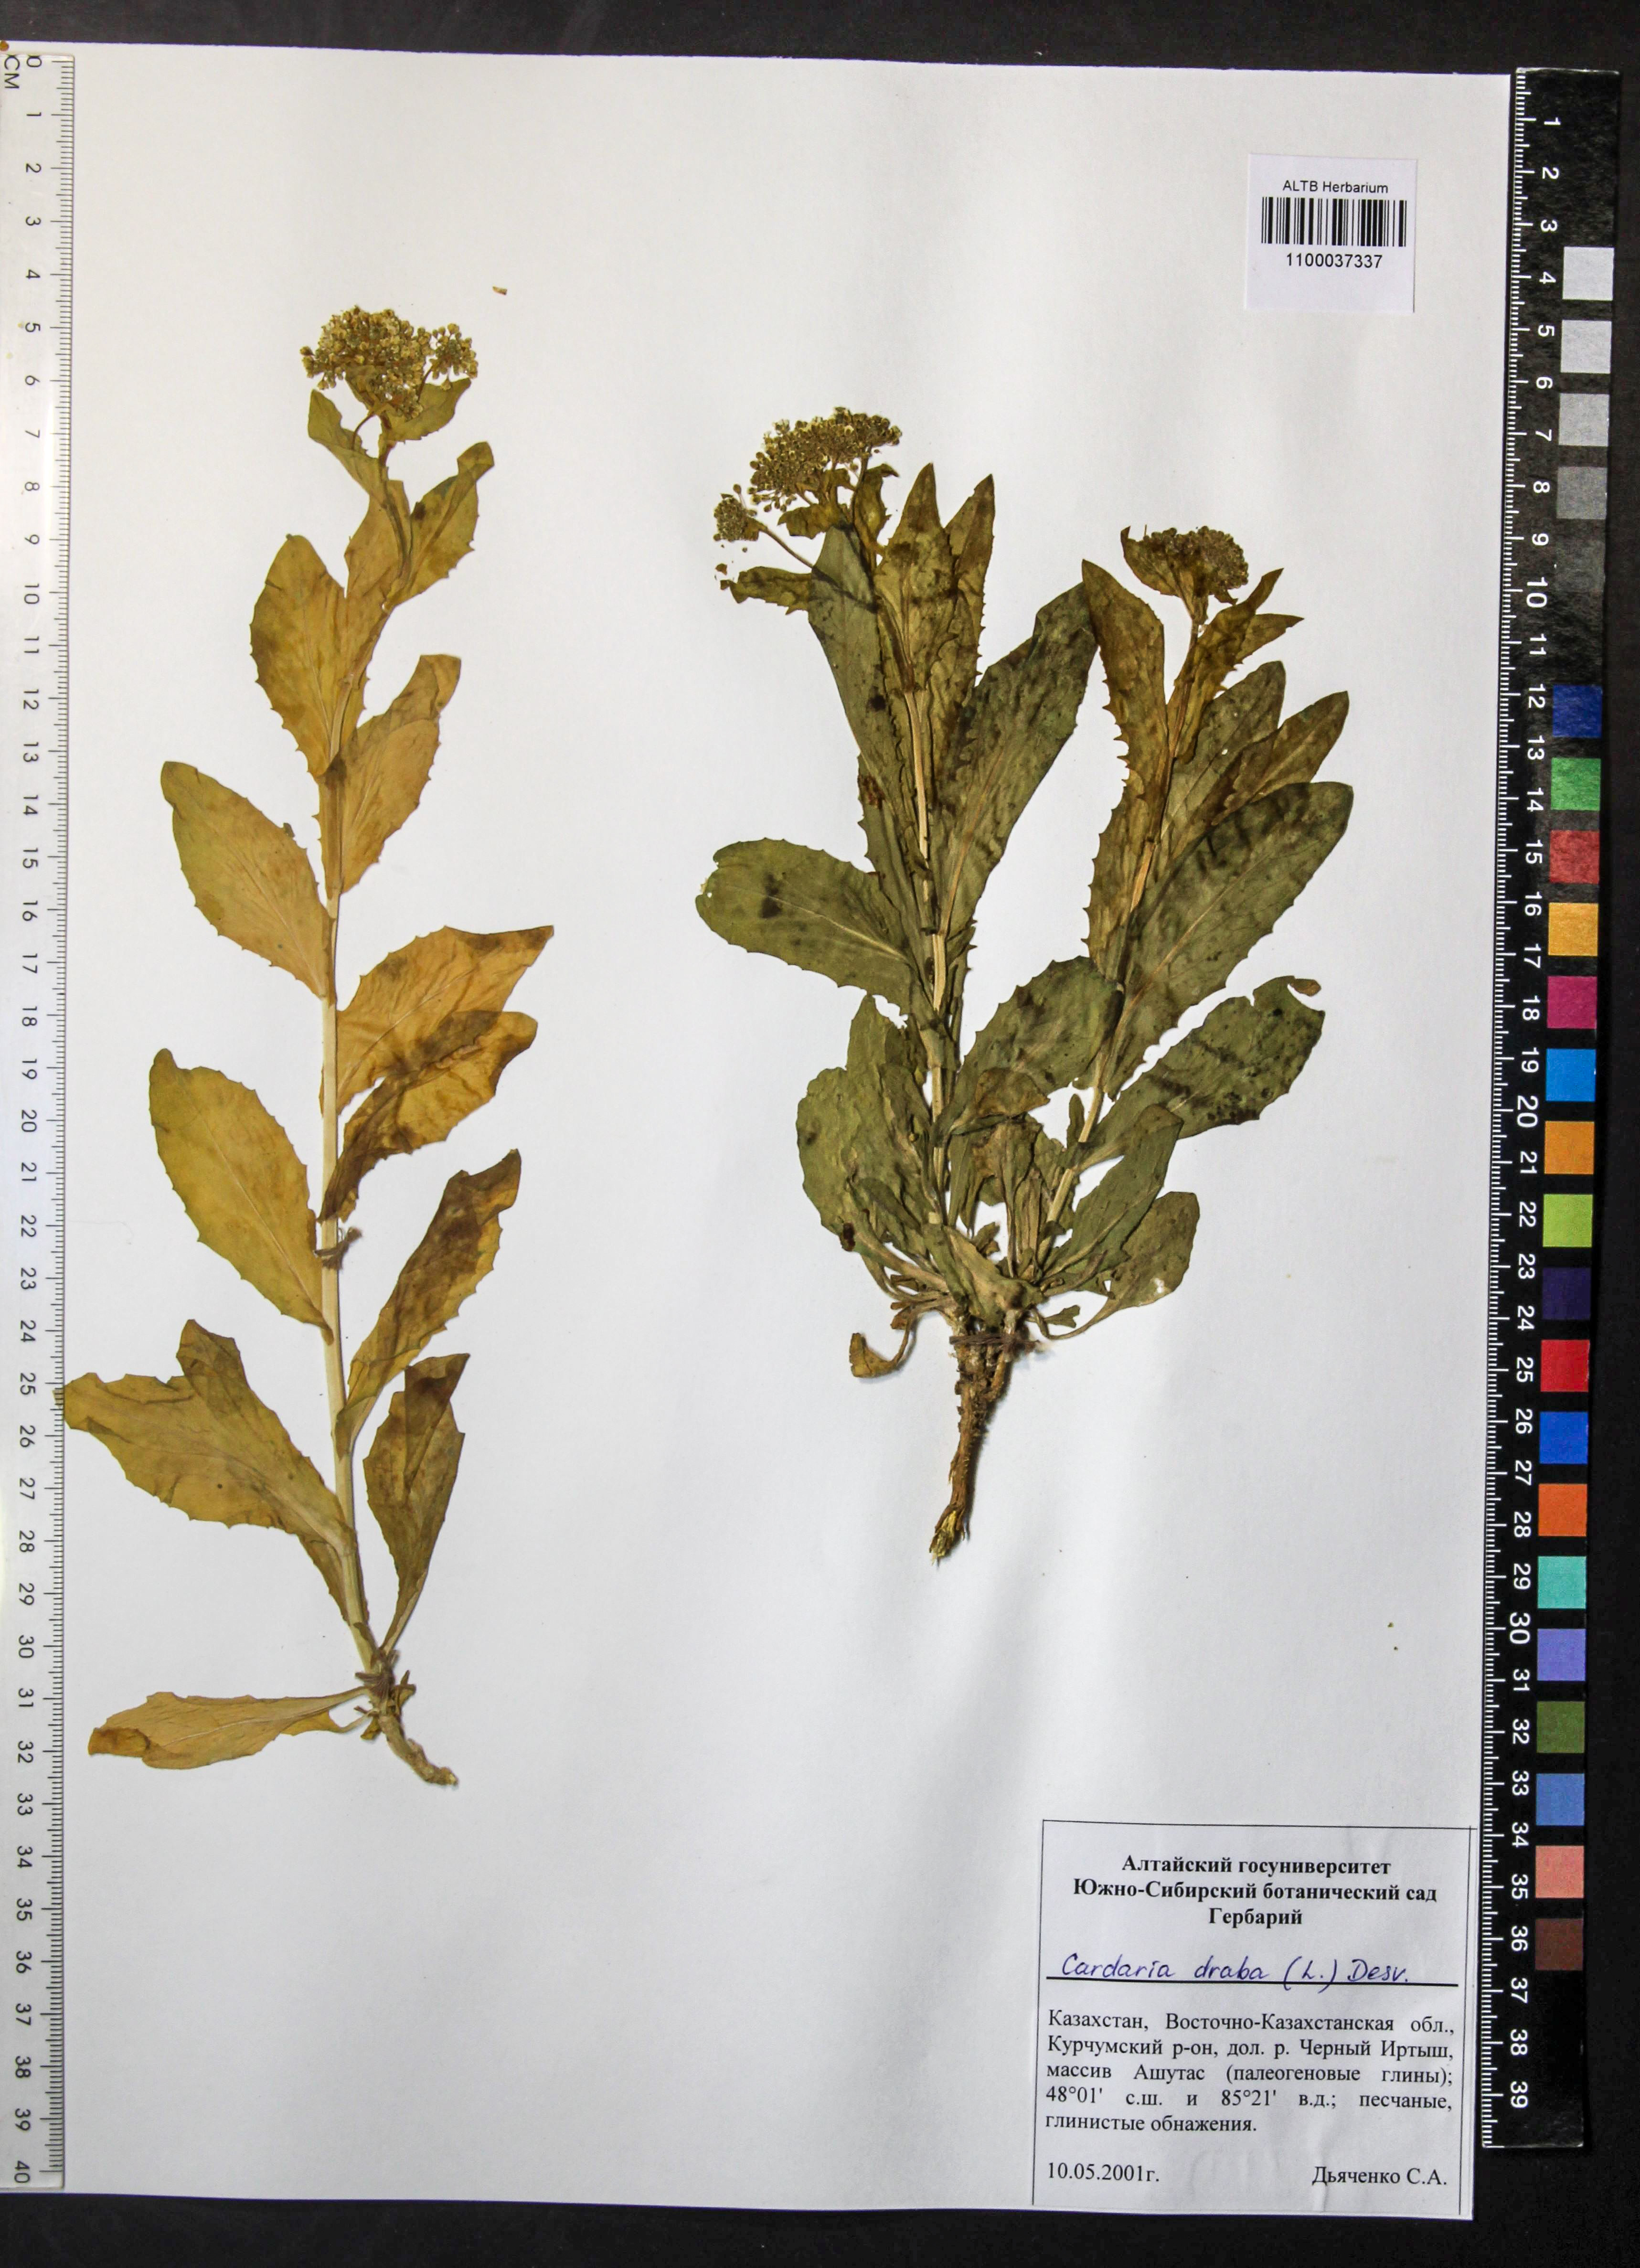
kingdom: Plantae
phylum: Tracheophyta
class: Magnoliopsida
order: Brassicales
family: Brassicaceae
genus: Lepidium
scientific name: Lepidium draba
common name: Hoary cress
